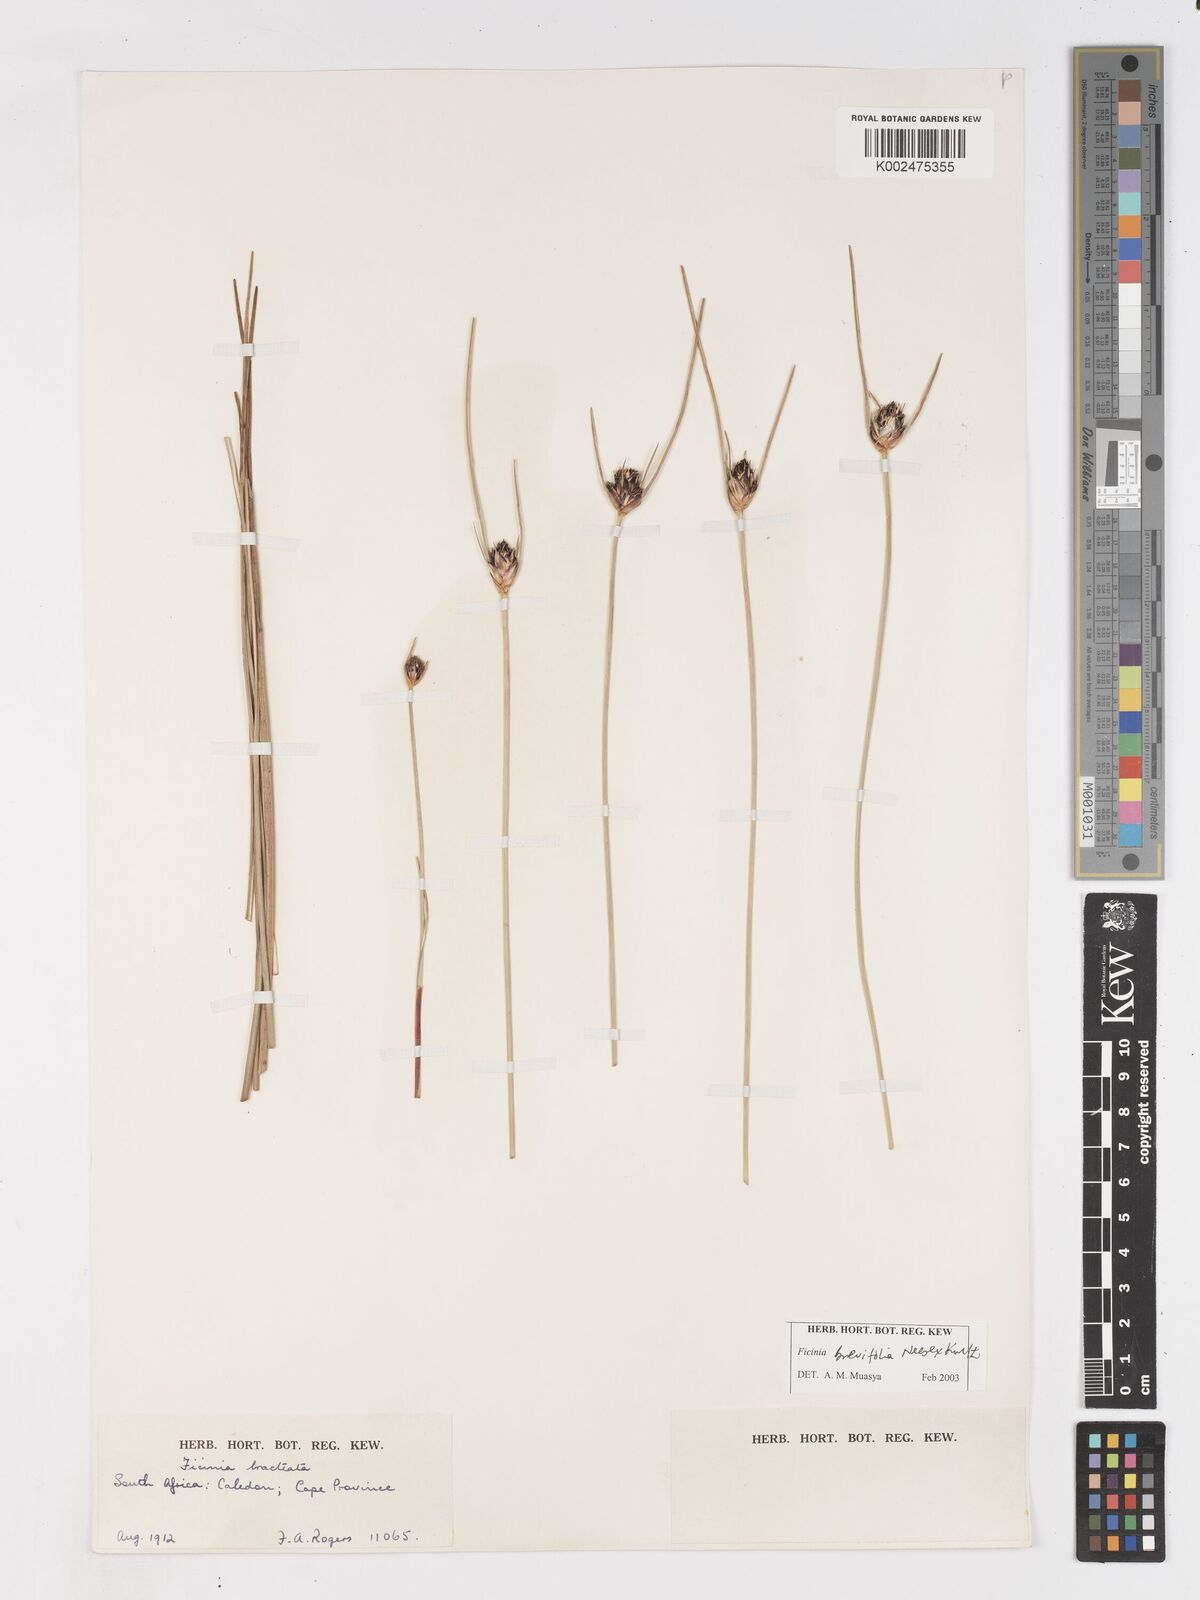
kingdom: Plantae
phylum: Tracheophyta
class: Liliopsida
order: Poales
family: Cyperaceae
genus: Ficinia
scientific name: Ficinia brevifolia
